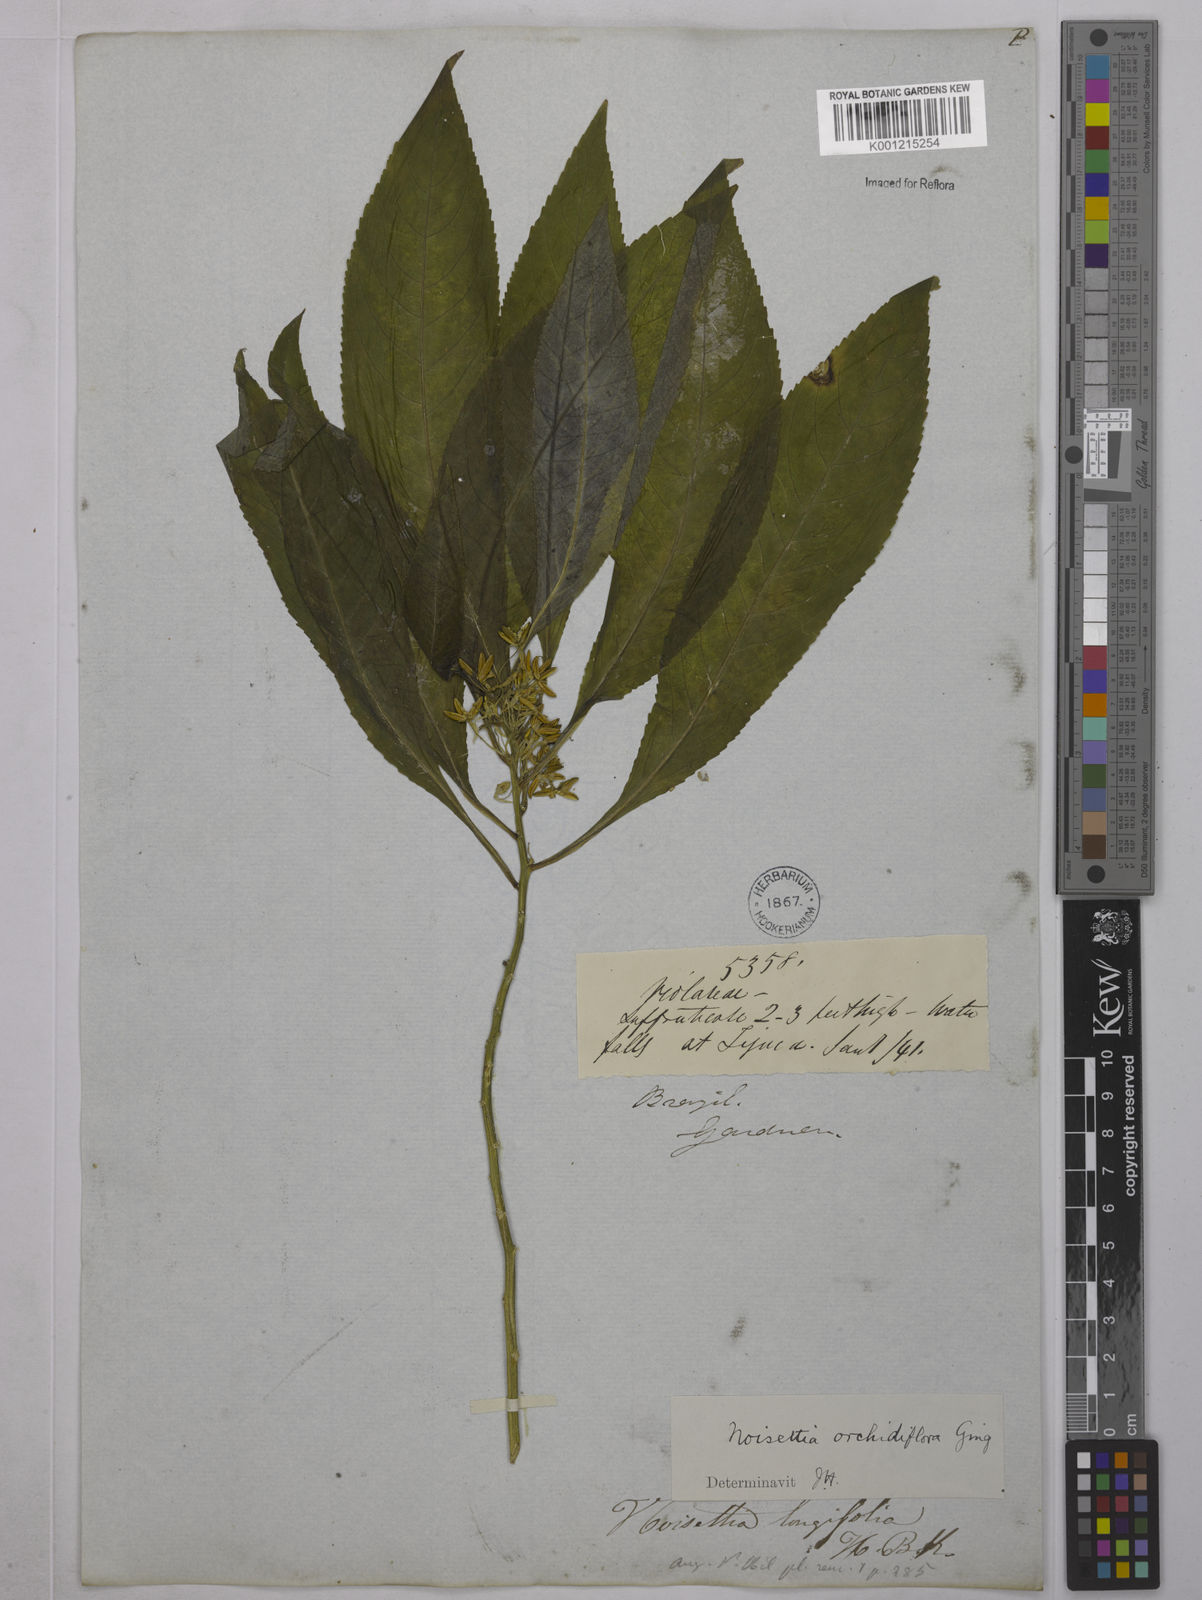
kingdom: Plantae
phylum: Tracheophyta
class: Magnoliopsida
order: Malpighiales
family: Violaceae
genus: Noisettia
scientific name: Noisettia orchidiflora
